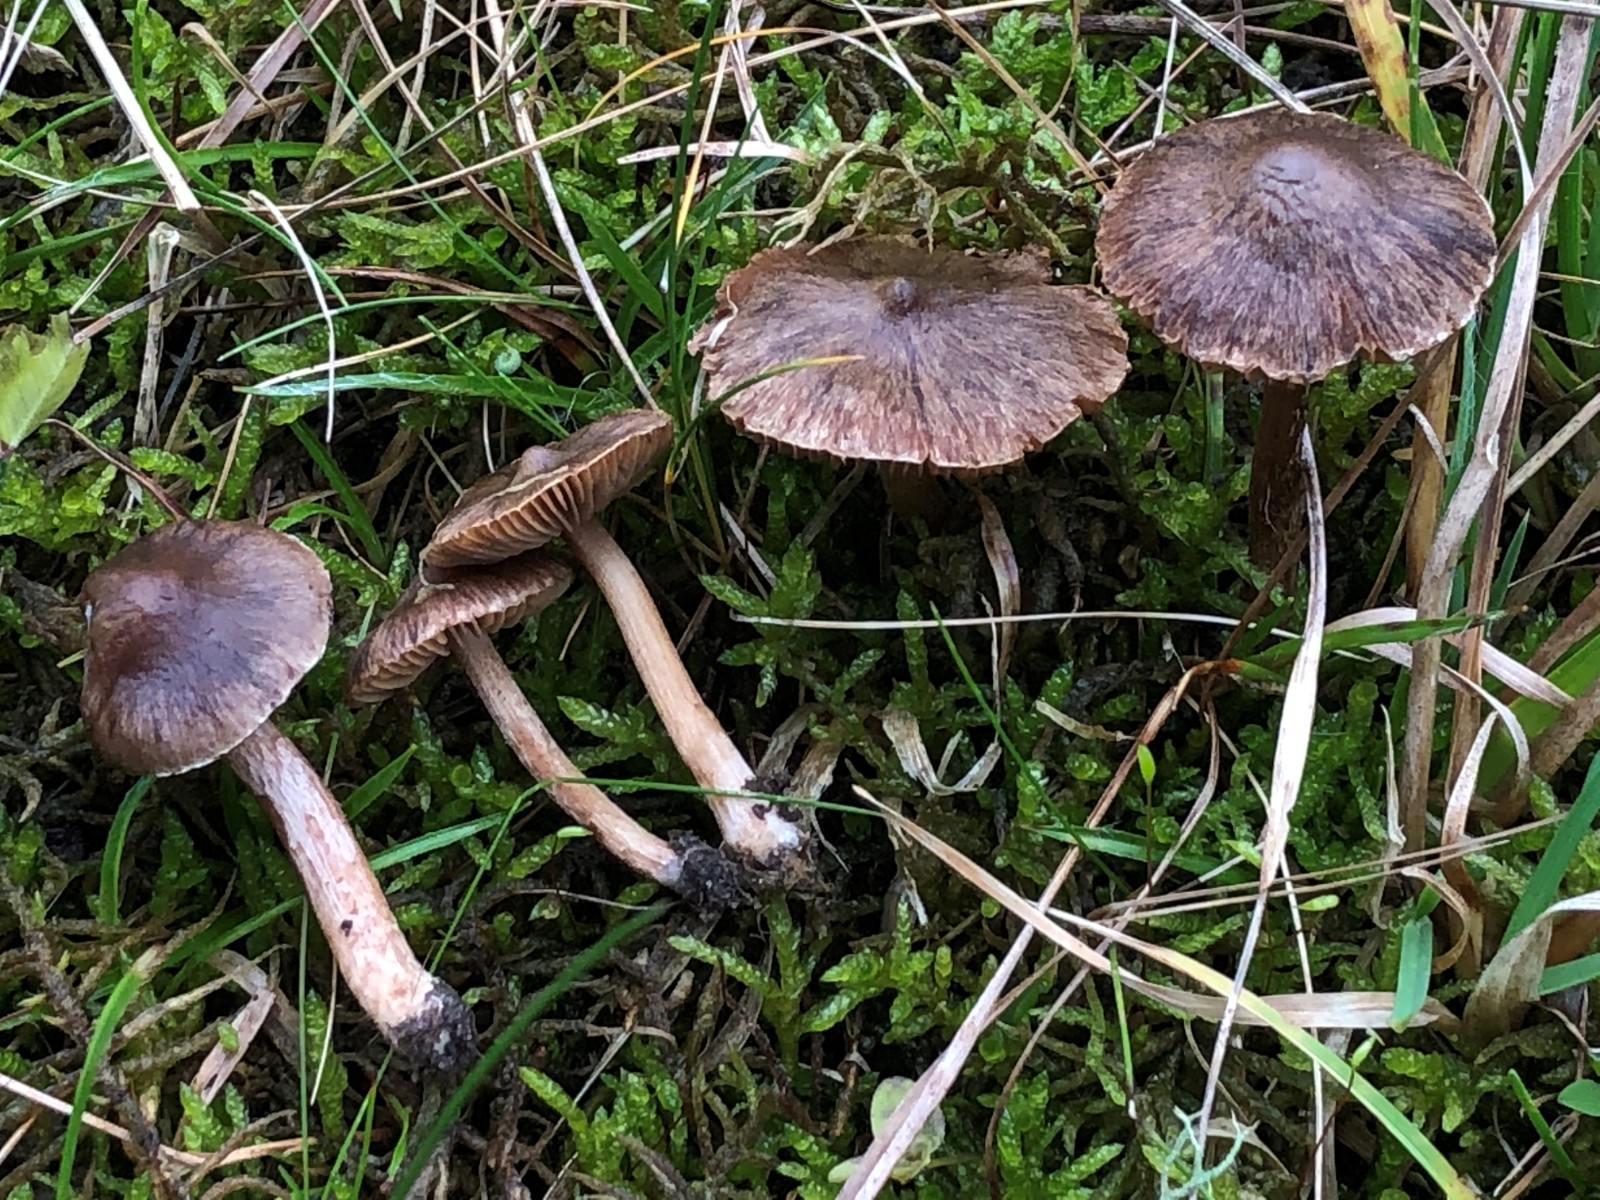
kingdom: Fungi
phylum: Basidiomycota
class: Agaricomycetes
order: Agaricales
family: Inocybaceae
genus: Inocybe
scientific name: Inocybe giacomi
